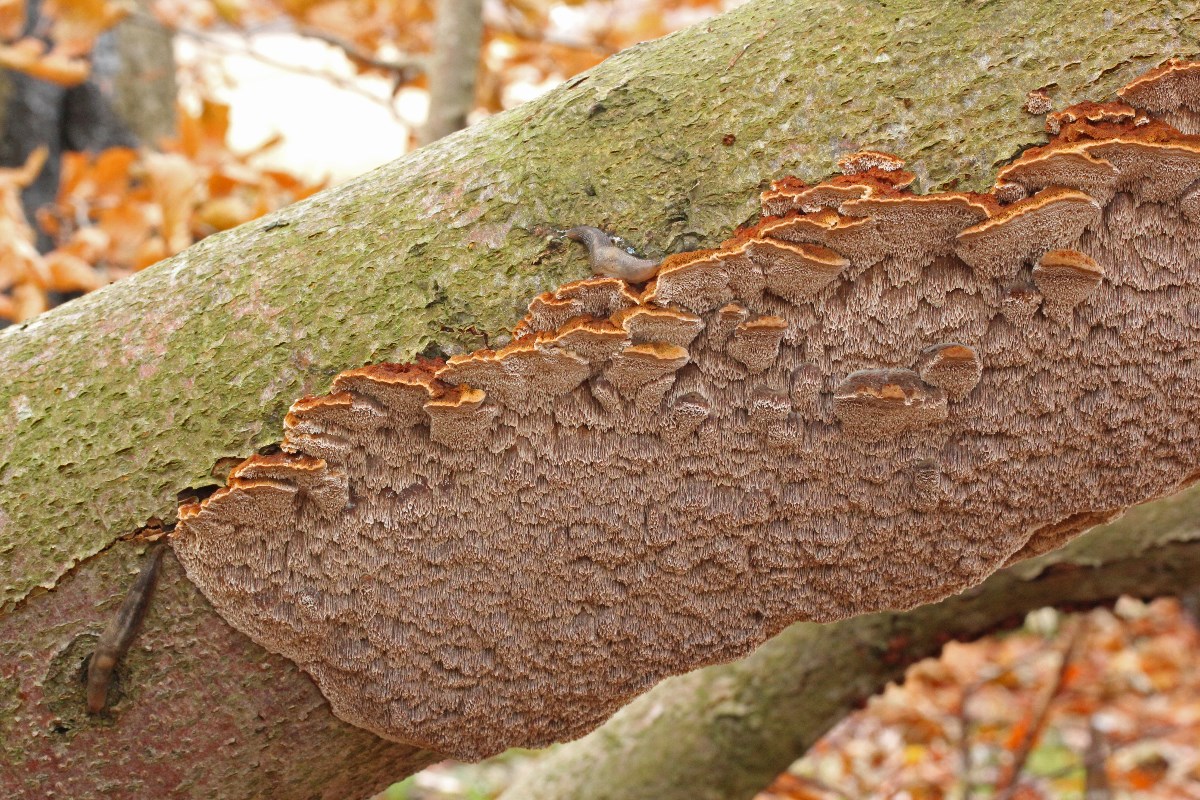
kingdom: Fungi
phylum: Basidiomycota
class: Agaricomycetes
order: Hymenochaetales
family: Hymenochaetaceae
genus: Mensularia
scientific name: Mensularia nodulosa
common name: bøge-spejlporesvamp
